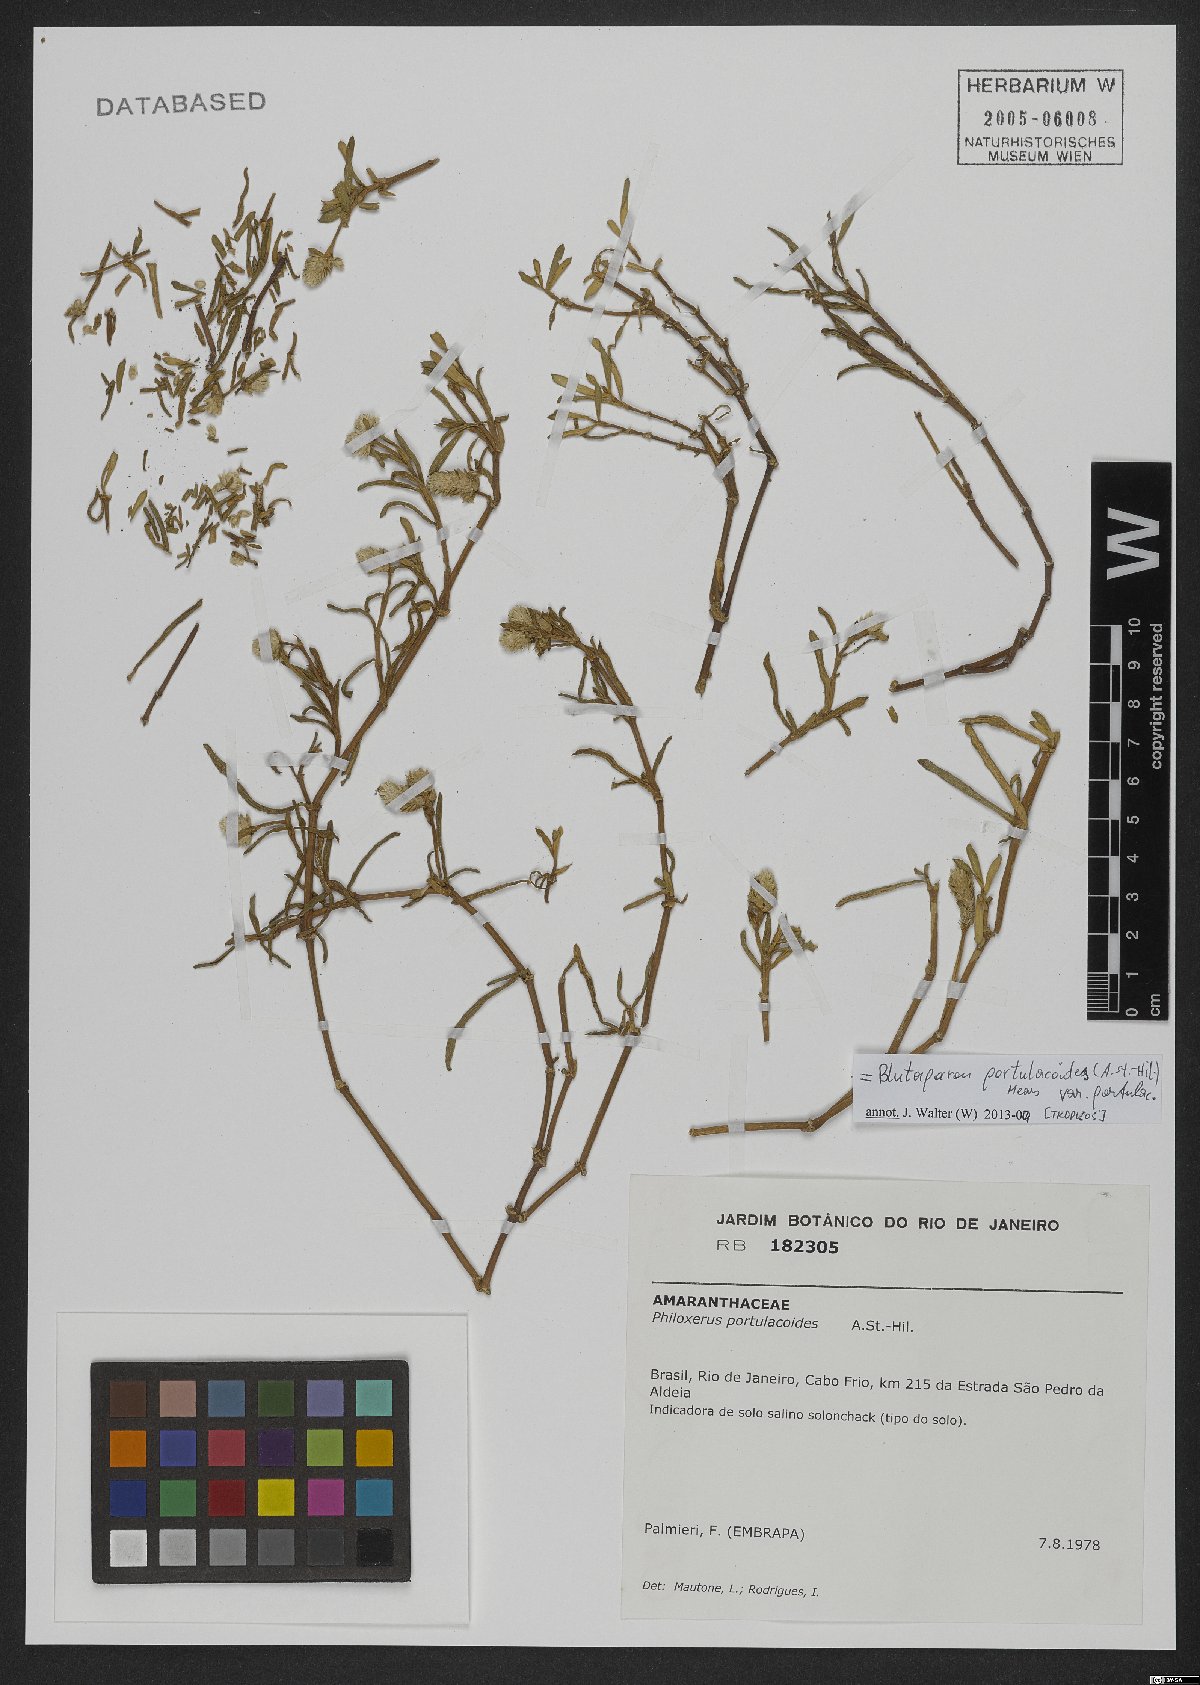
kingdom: Plantae
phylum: Tracheophyta
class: Magnoliopsida
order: Caryophyllales
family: Amaranthaceae
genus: Gomphrena
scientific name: Gomphrena portulacoides
